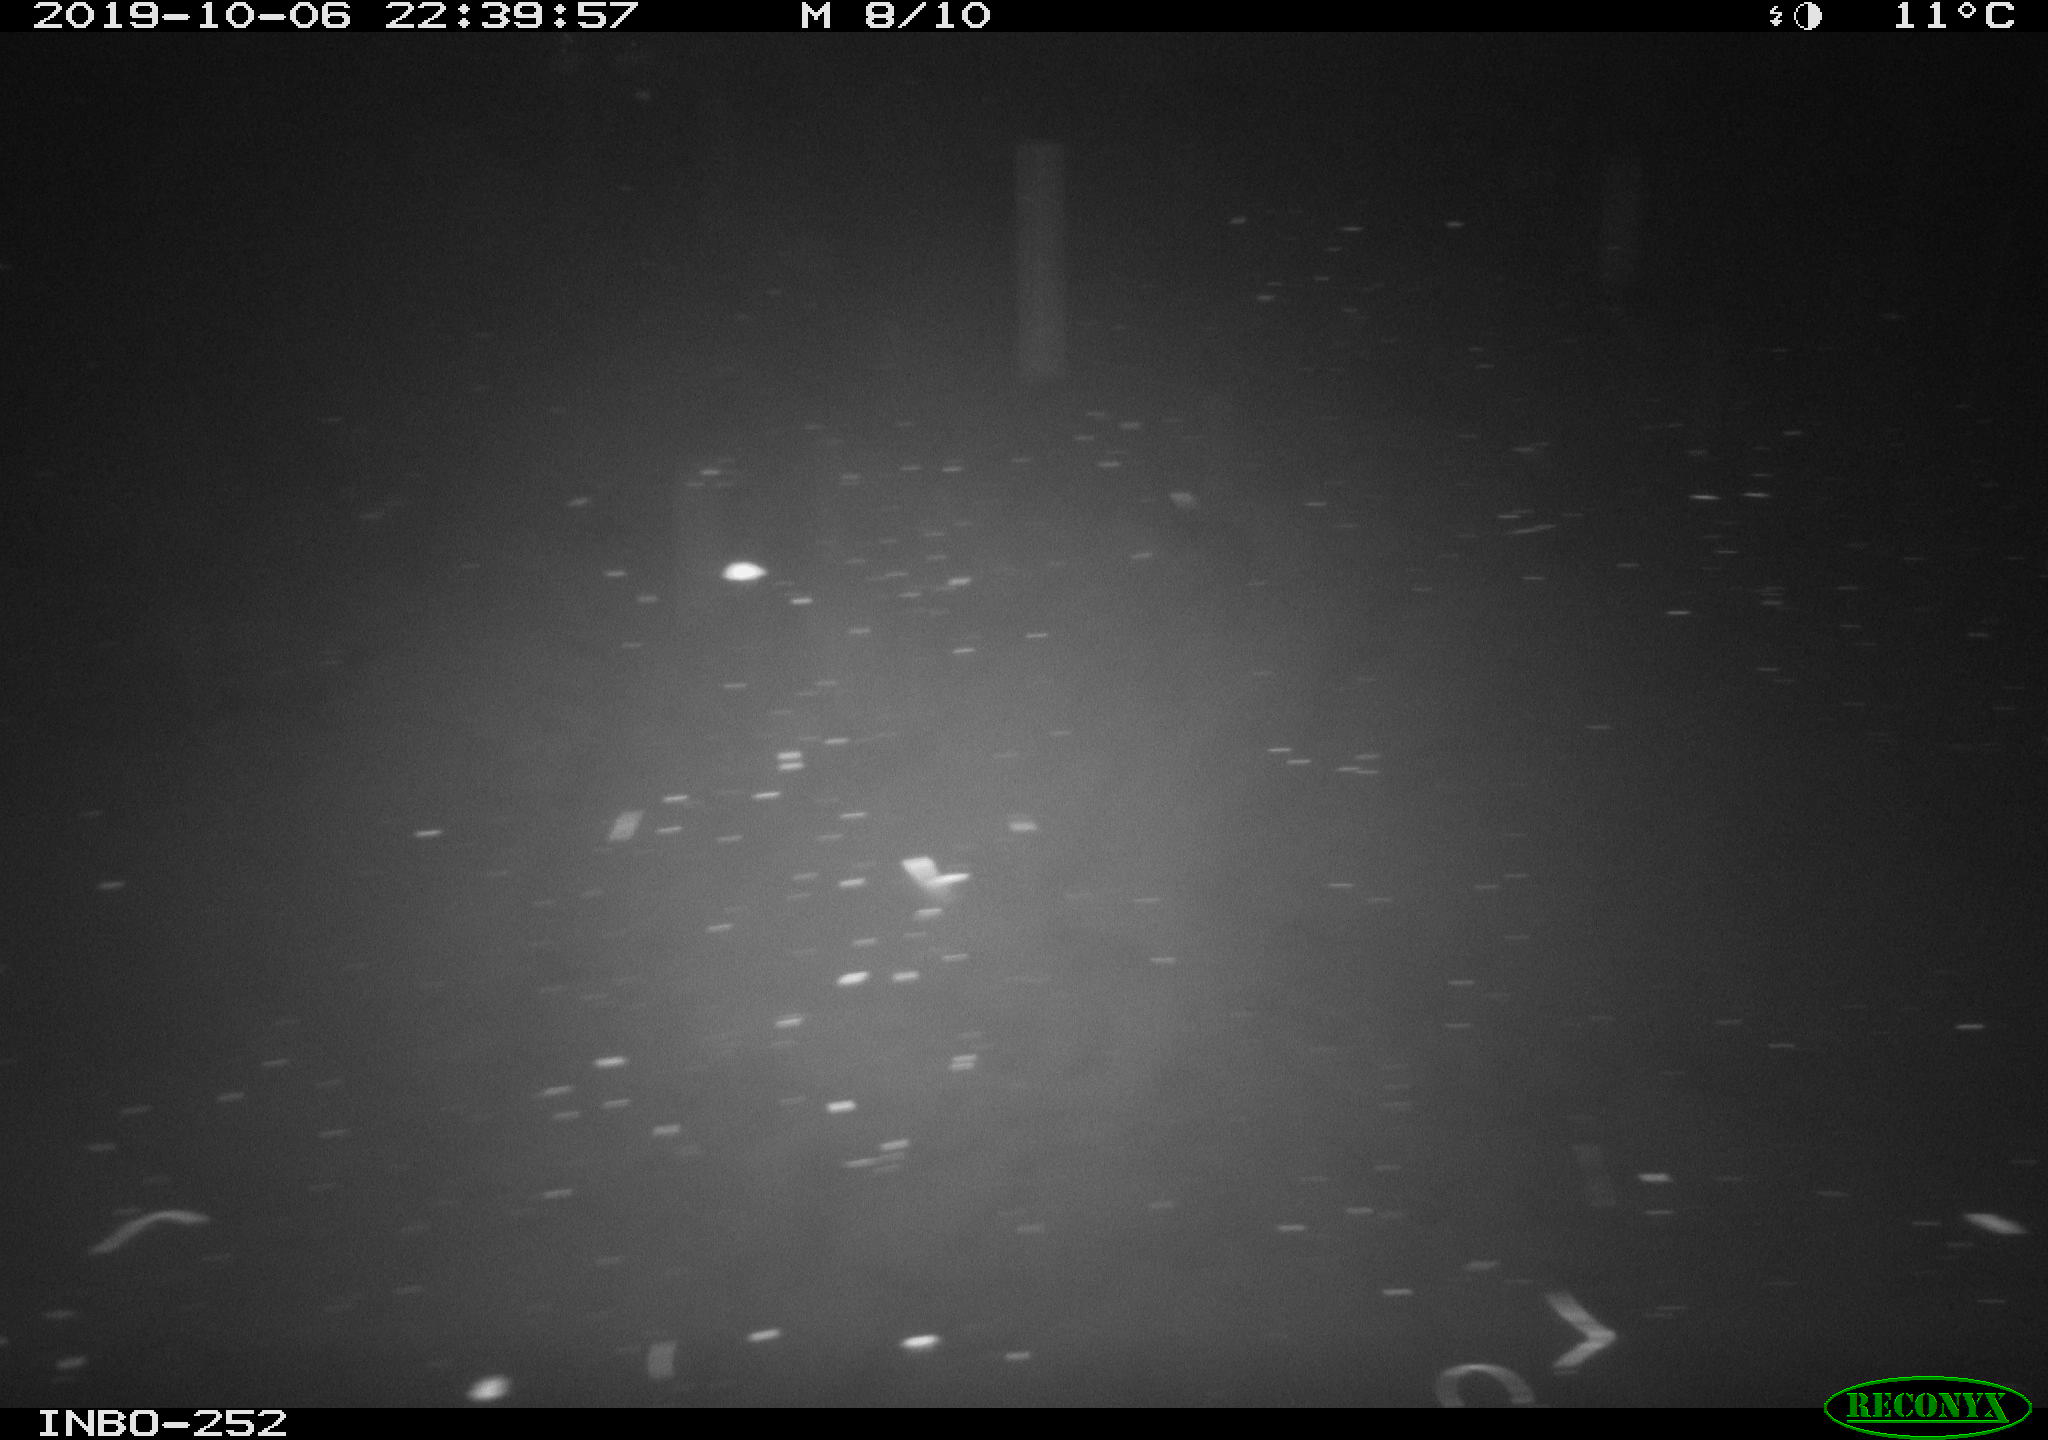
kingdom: Animalia
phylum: Chordata
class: Aves
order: Anseriformes
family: Anatidae
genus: Anas
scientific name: Anas platyrhynchos
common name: Mallard
